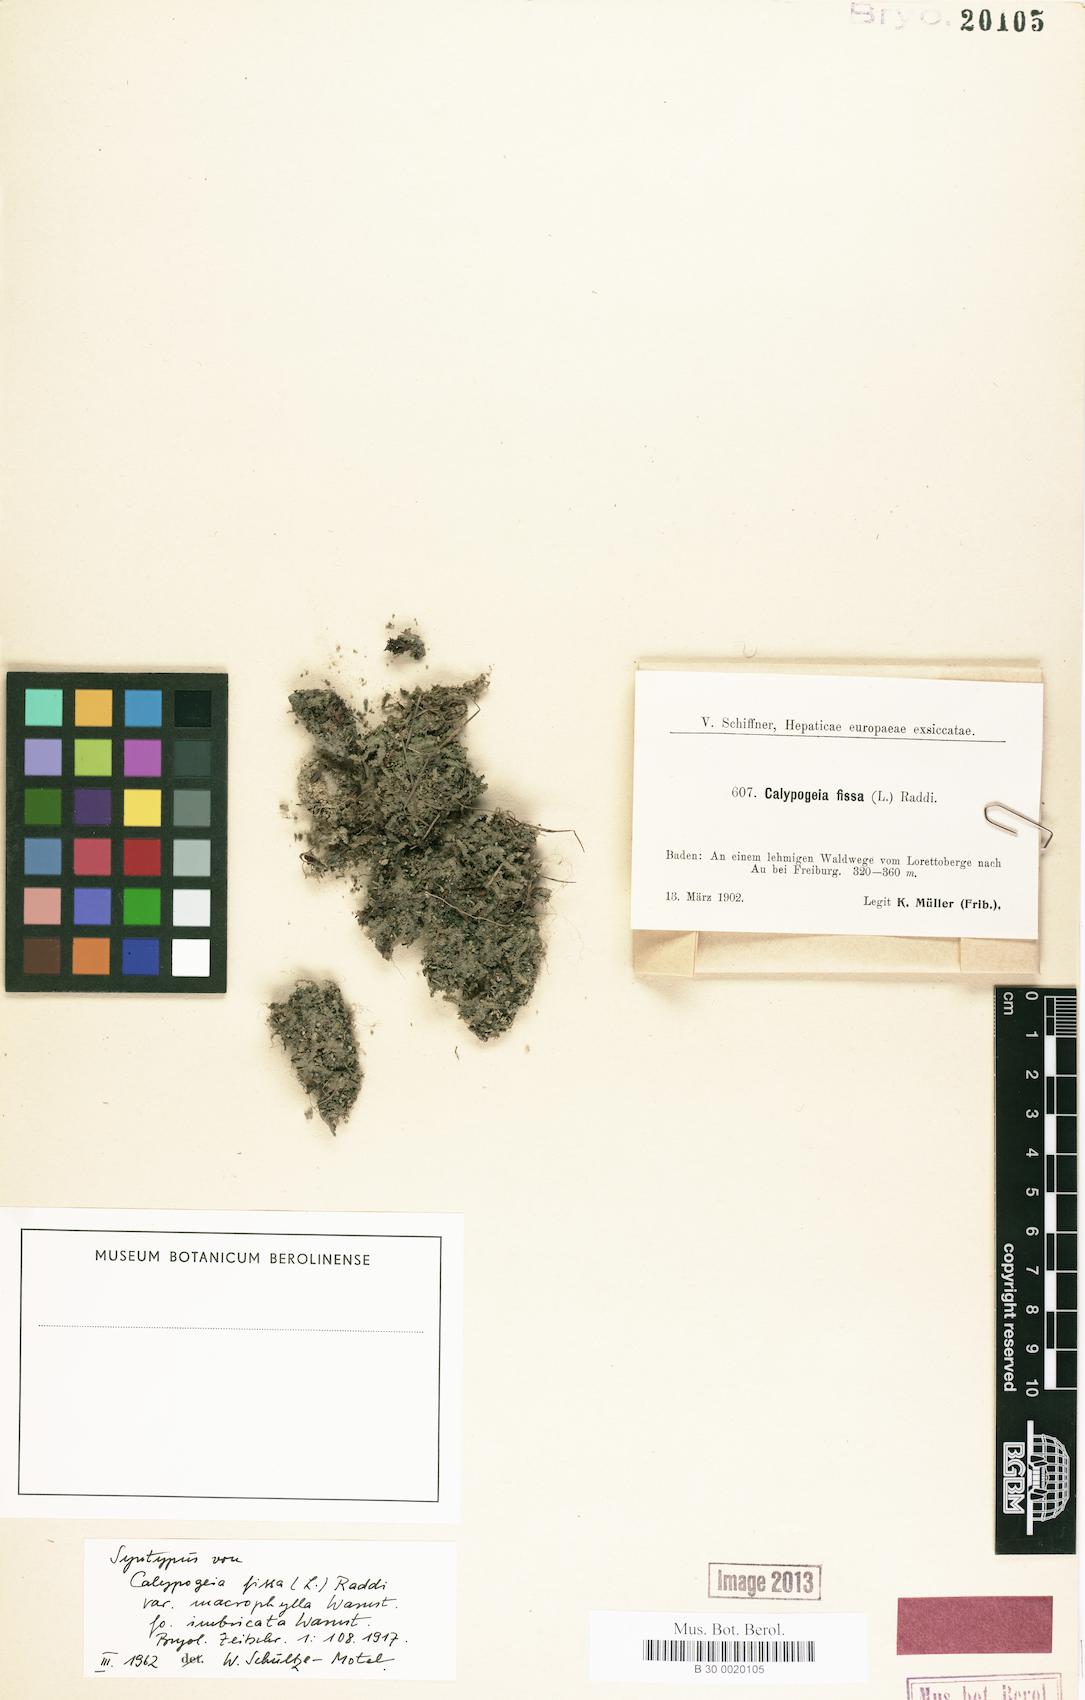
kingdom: Plantae
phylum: Marchantiophyta
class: Jungermanniopsida
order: Jungermanniales
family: Calypogeiaceae
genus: Calypogeia
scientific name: Calypogeia fissa
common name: Common pouchwort
